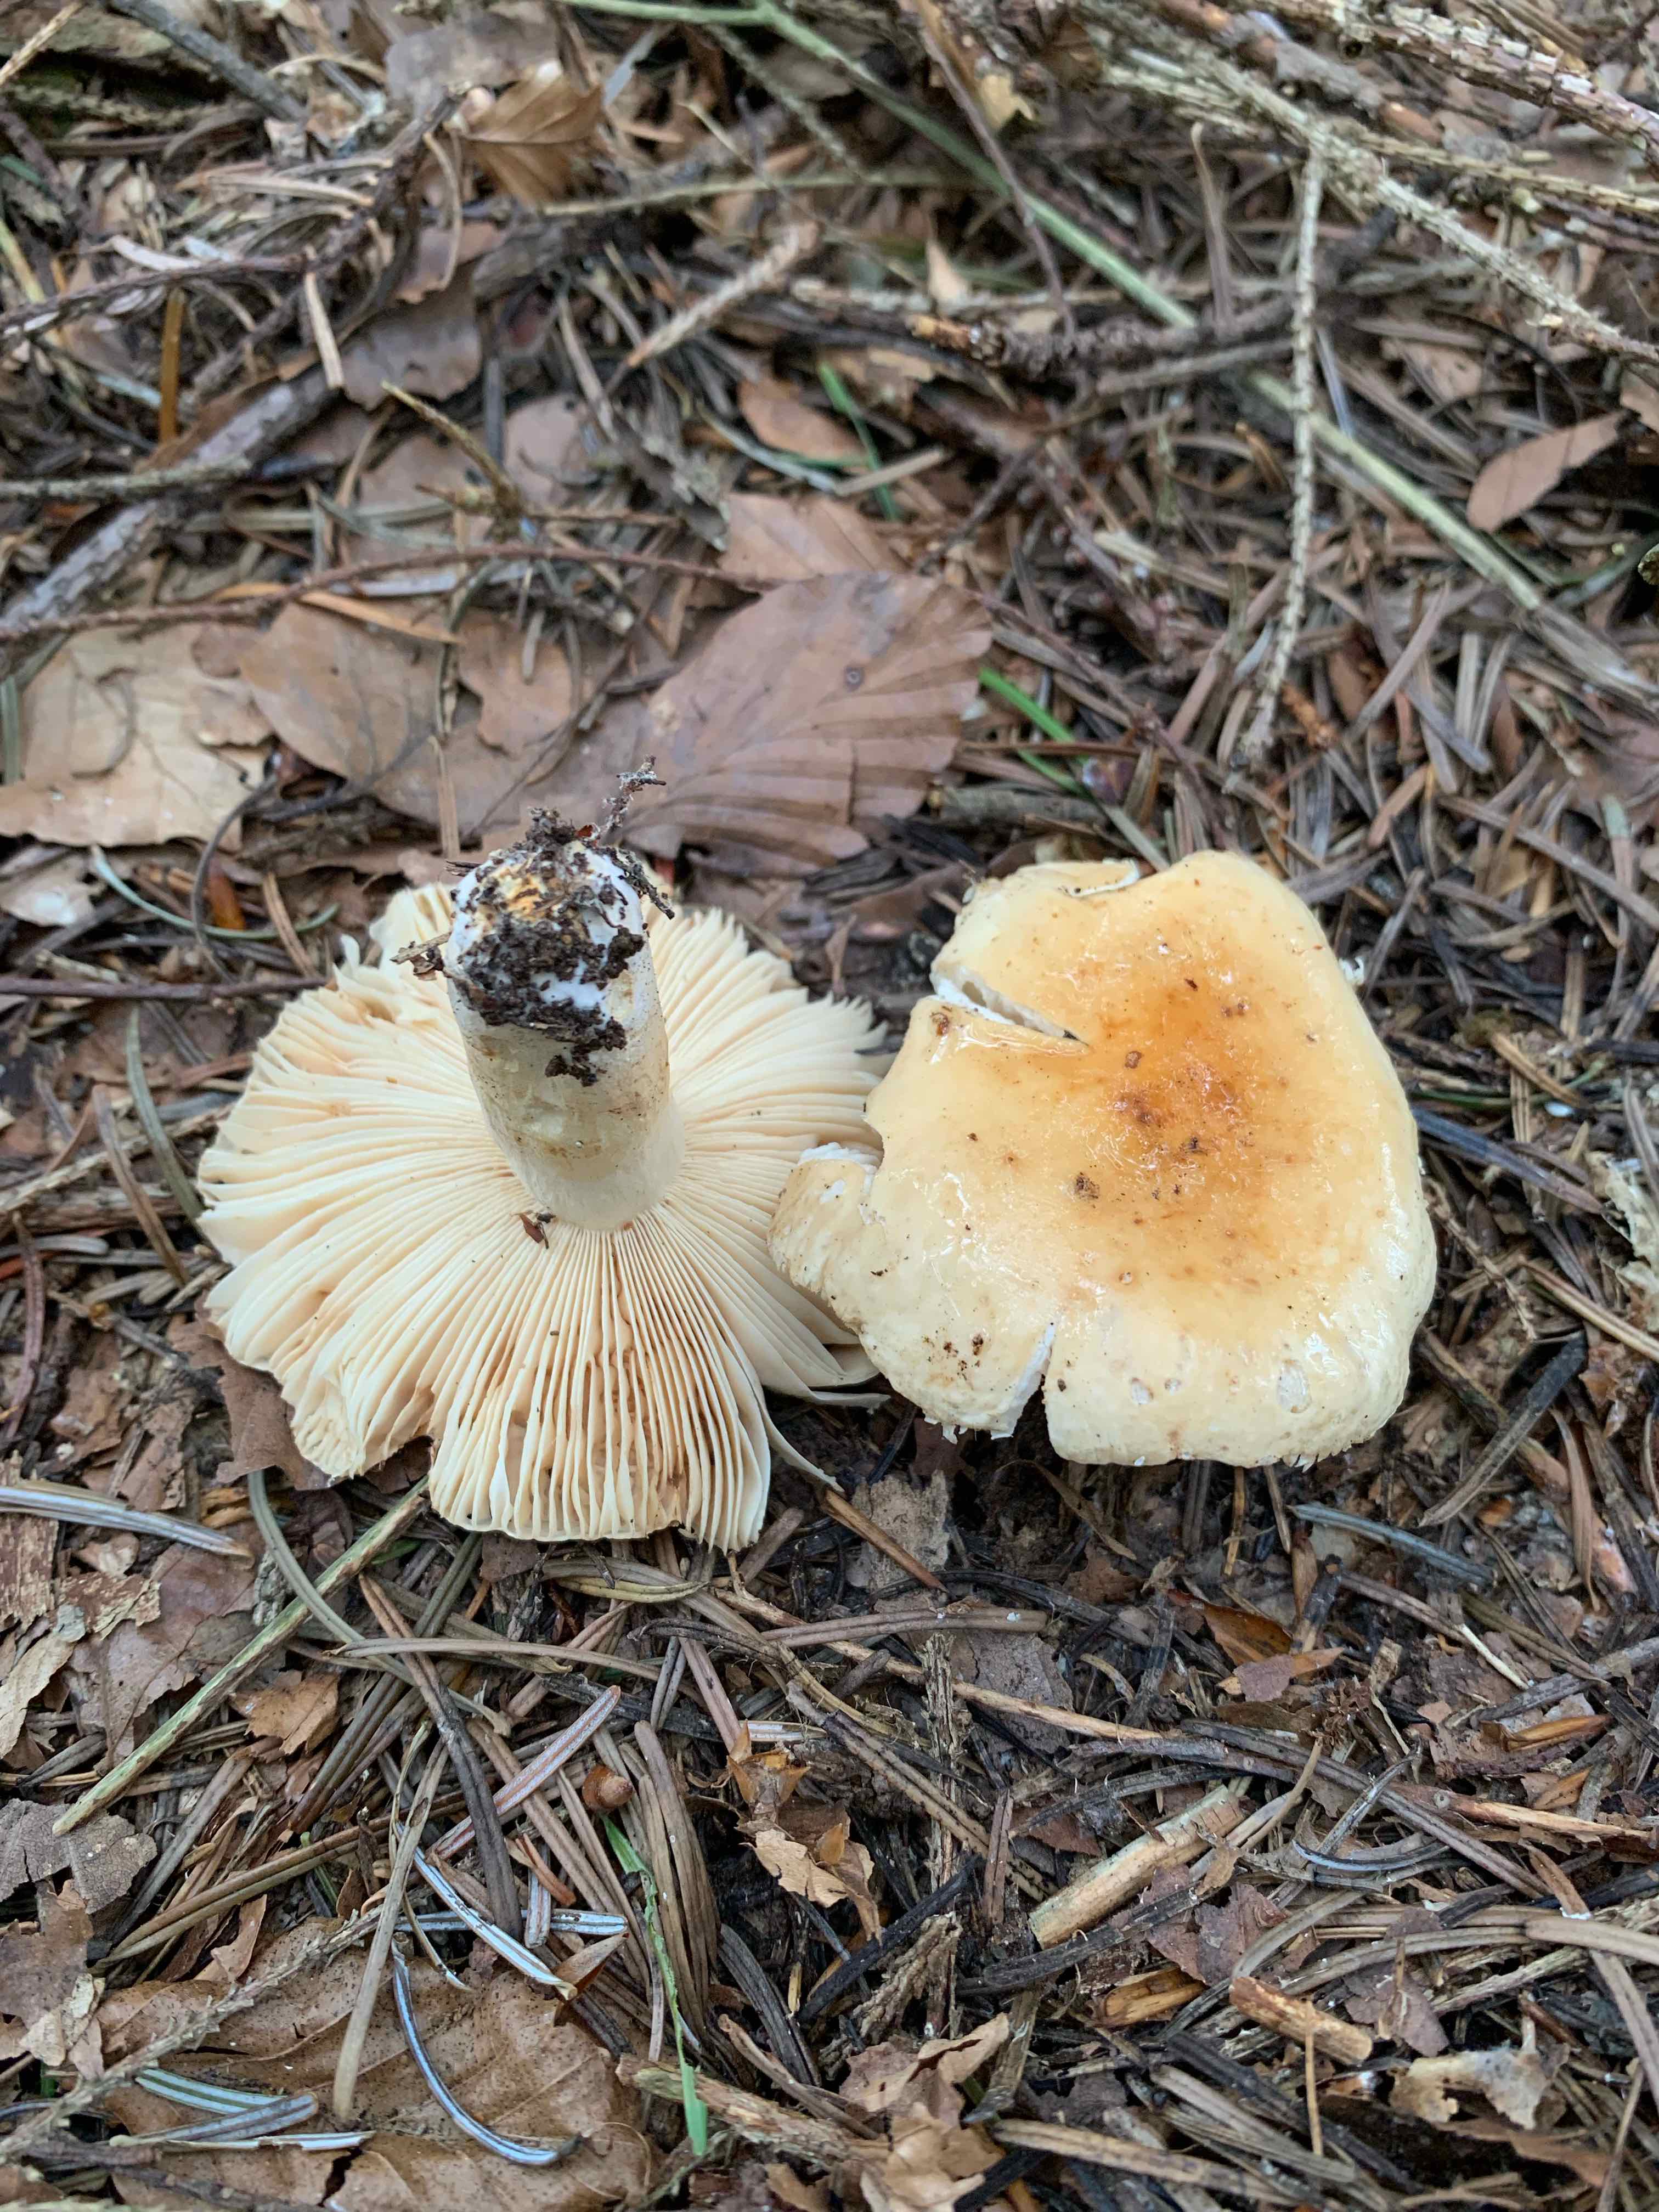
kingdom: Fungi
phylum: Basidiomycota
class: Agaricomycetes
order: Russulales
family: Russulaceae
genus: Russula
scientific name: Russula fellea
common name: galde-skørhat
